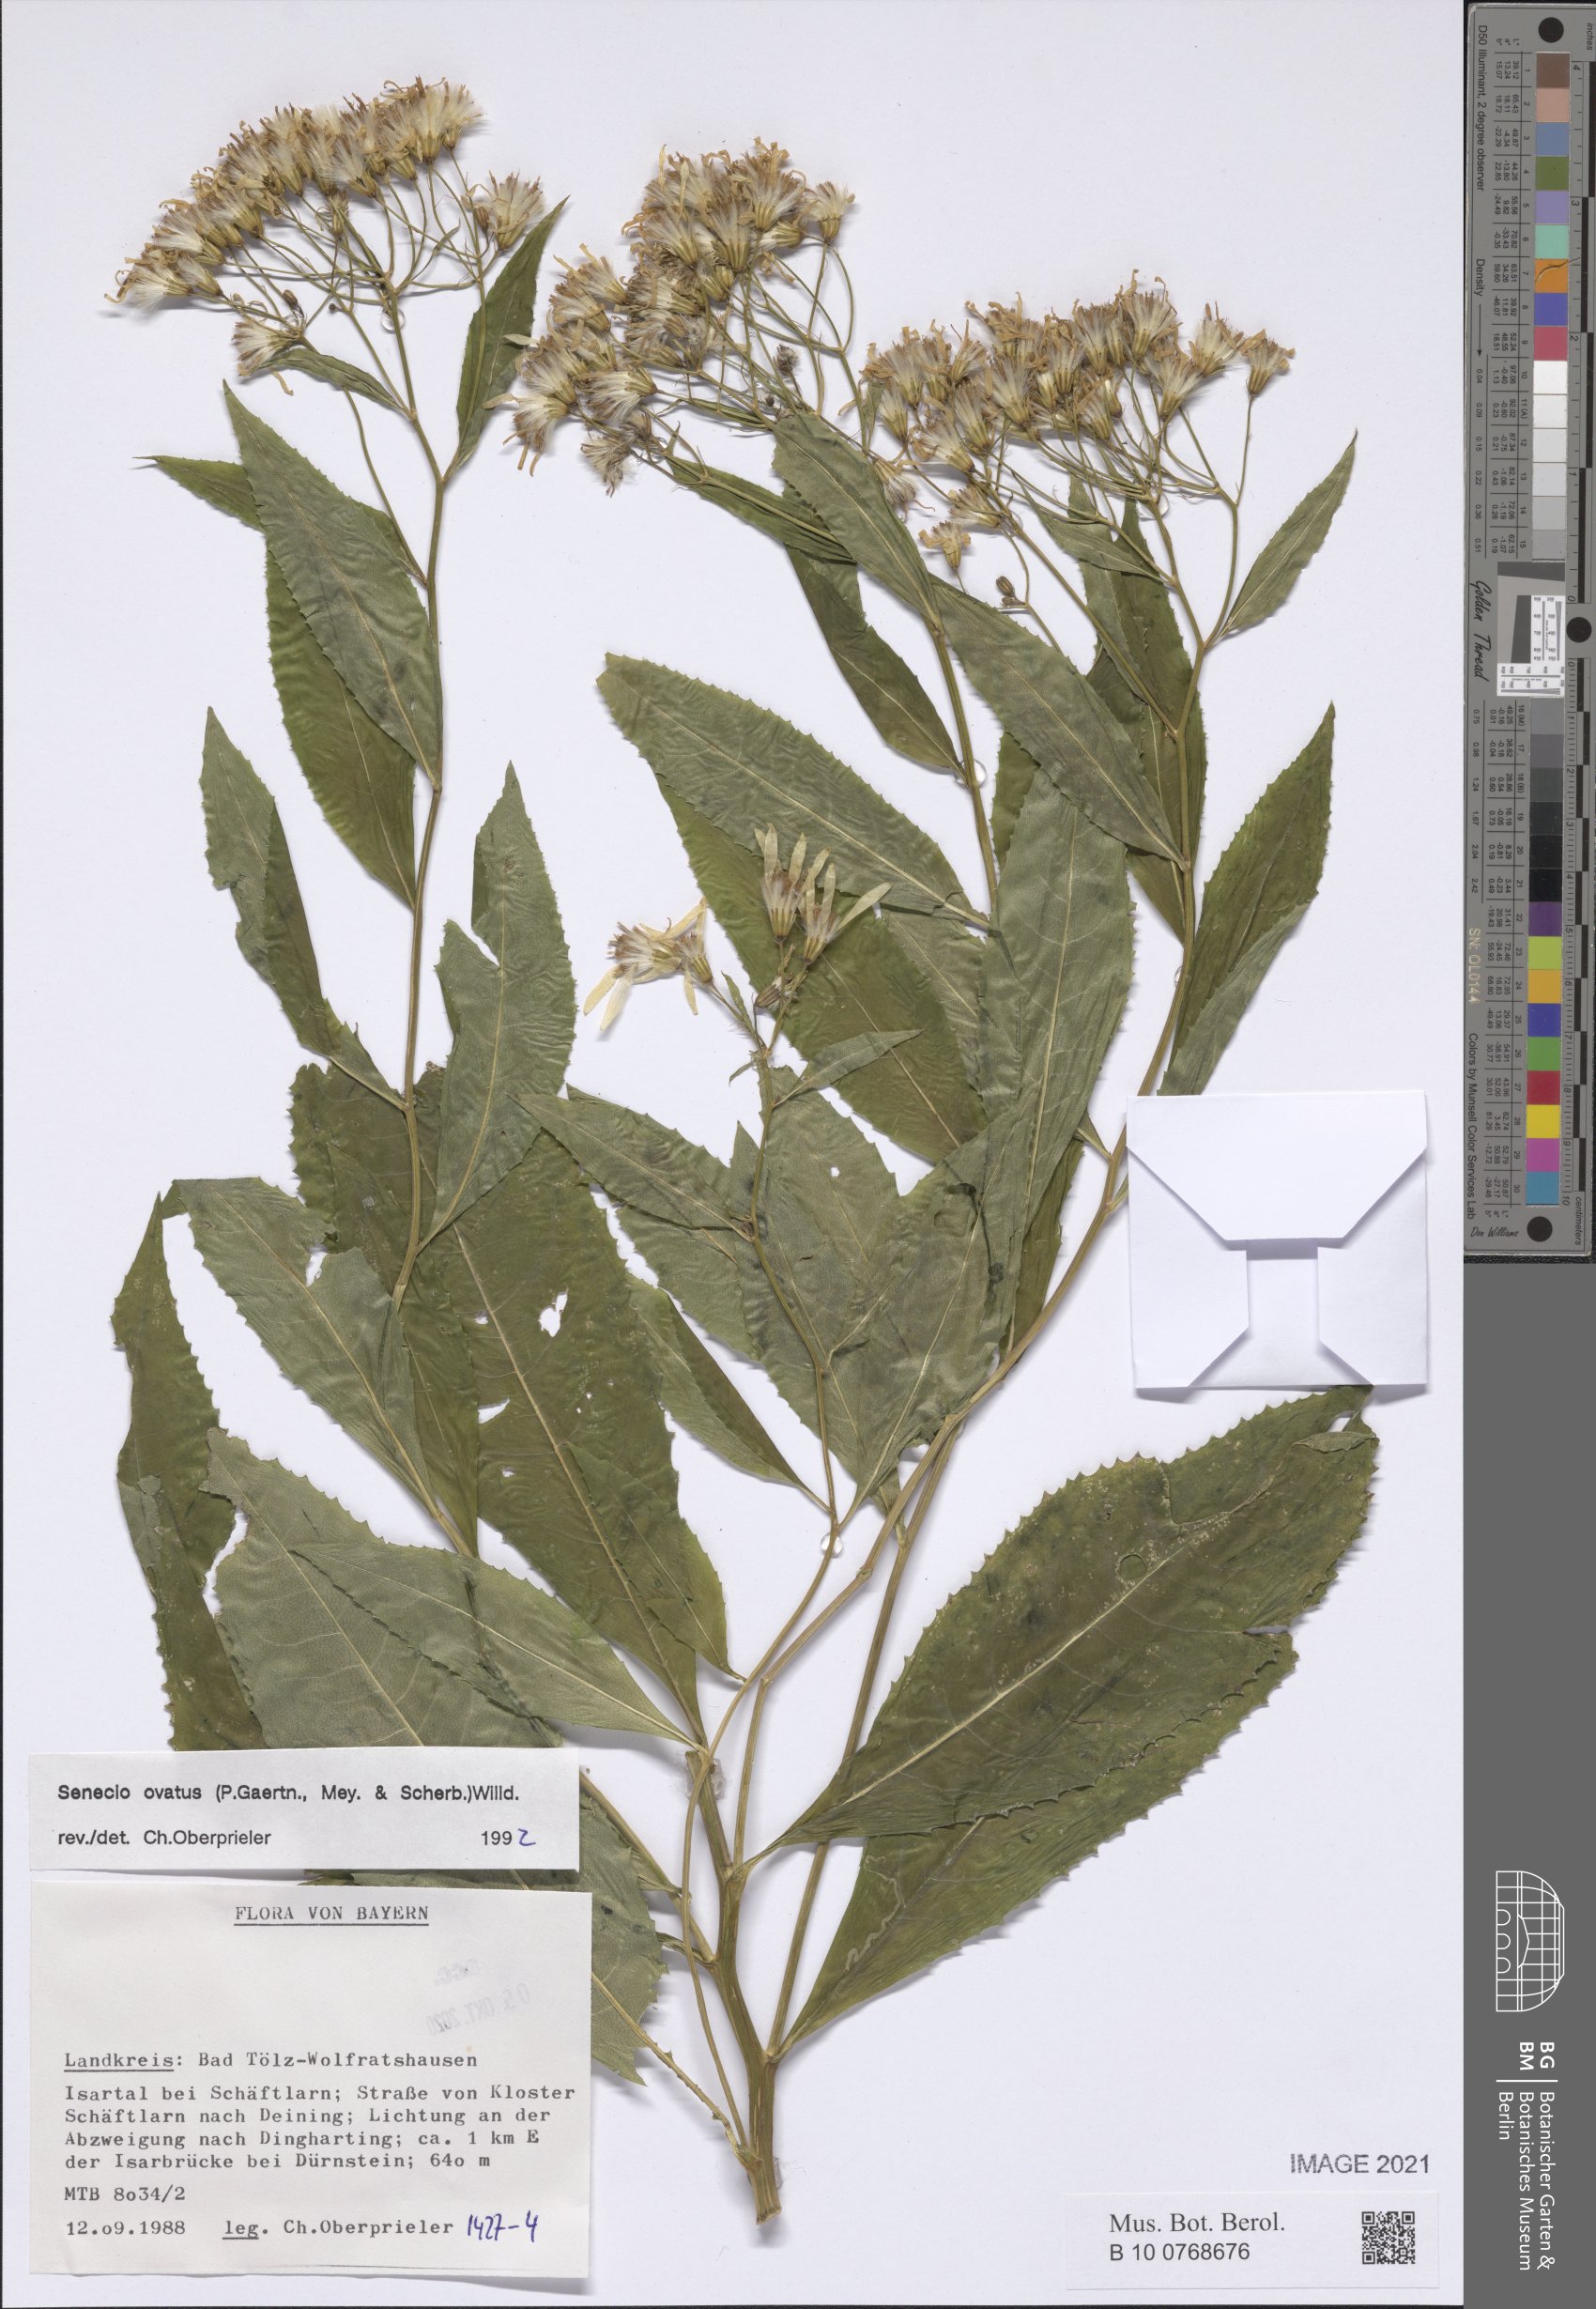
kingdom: Plantae
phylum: Tracheophyta
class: Magnoliopsida
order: Asterales
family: Asteraceae
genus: Senecio
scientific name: Senecio ovatus
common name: Wood ragwort
